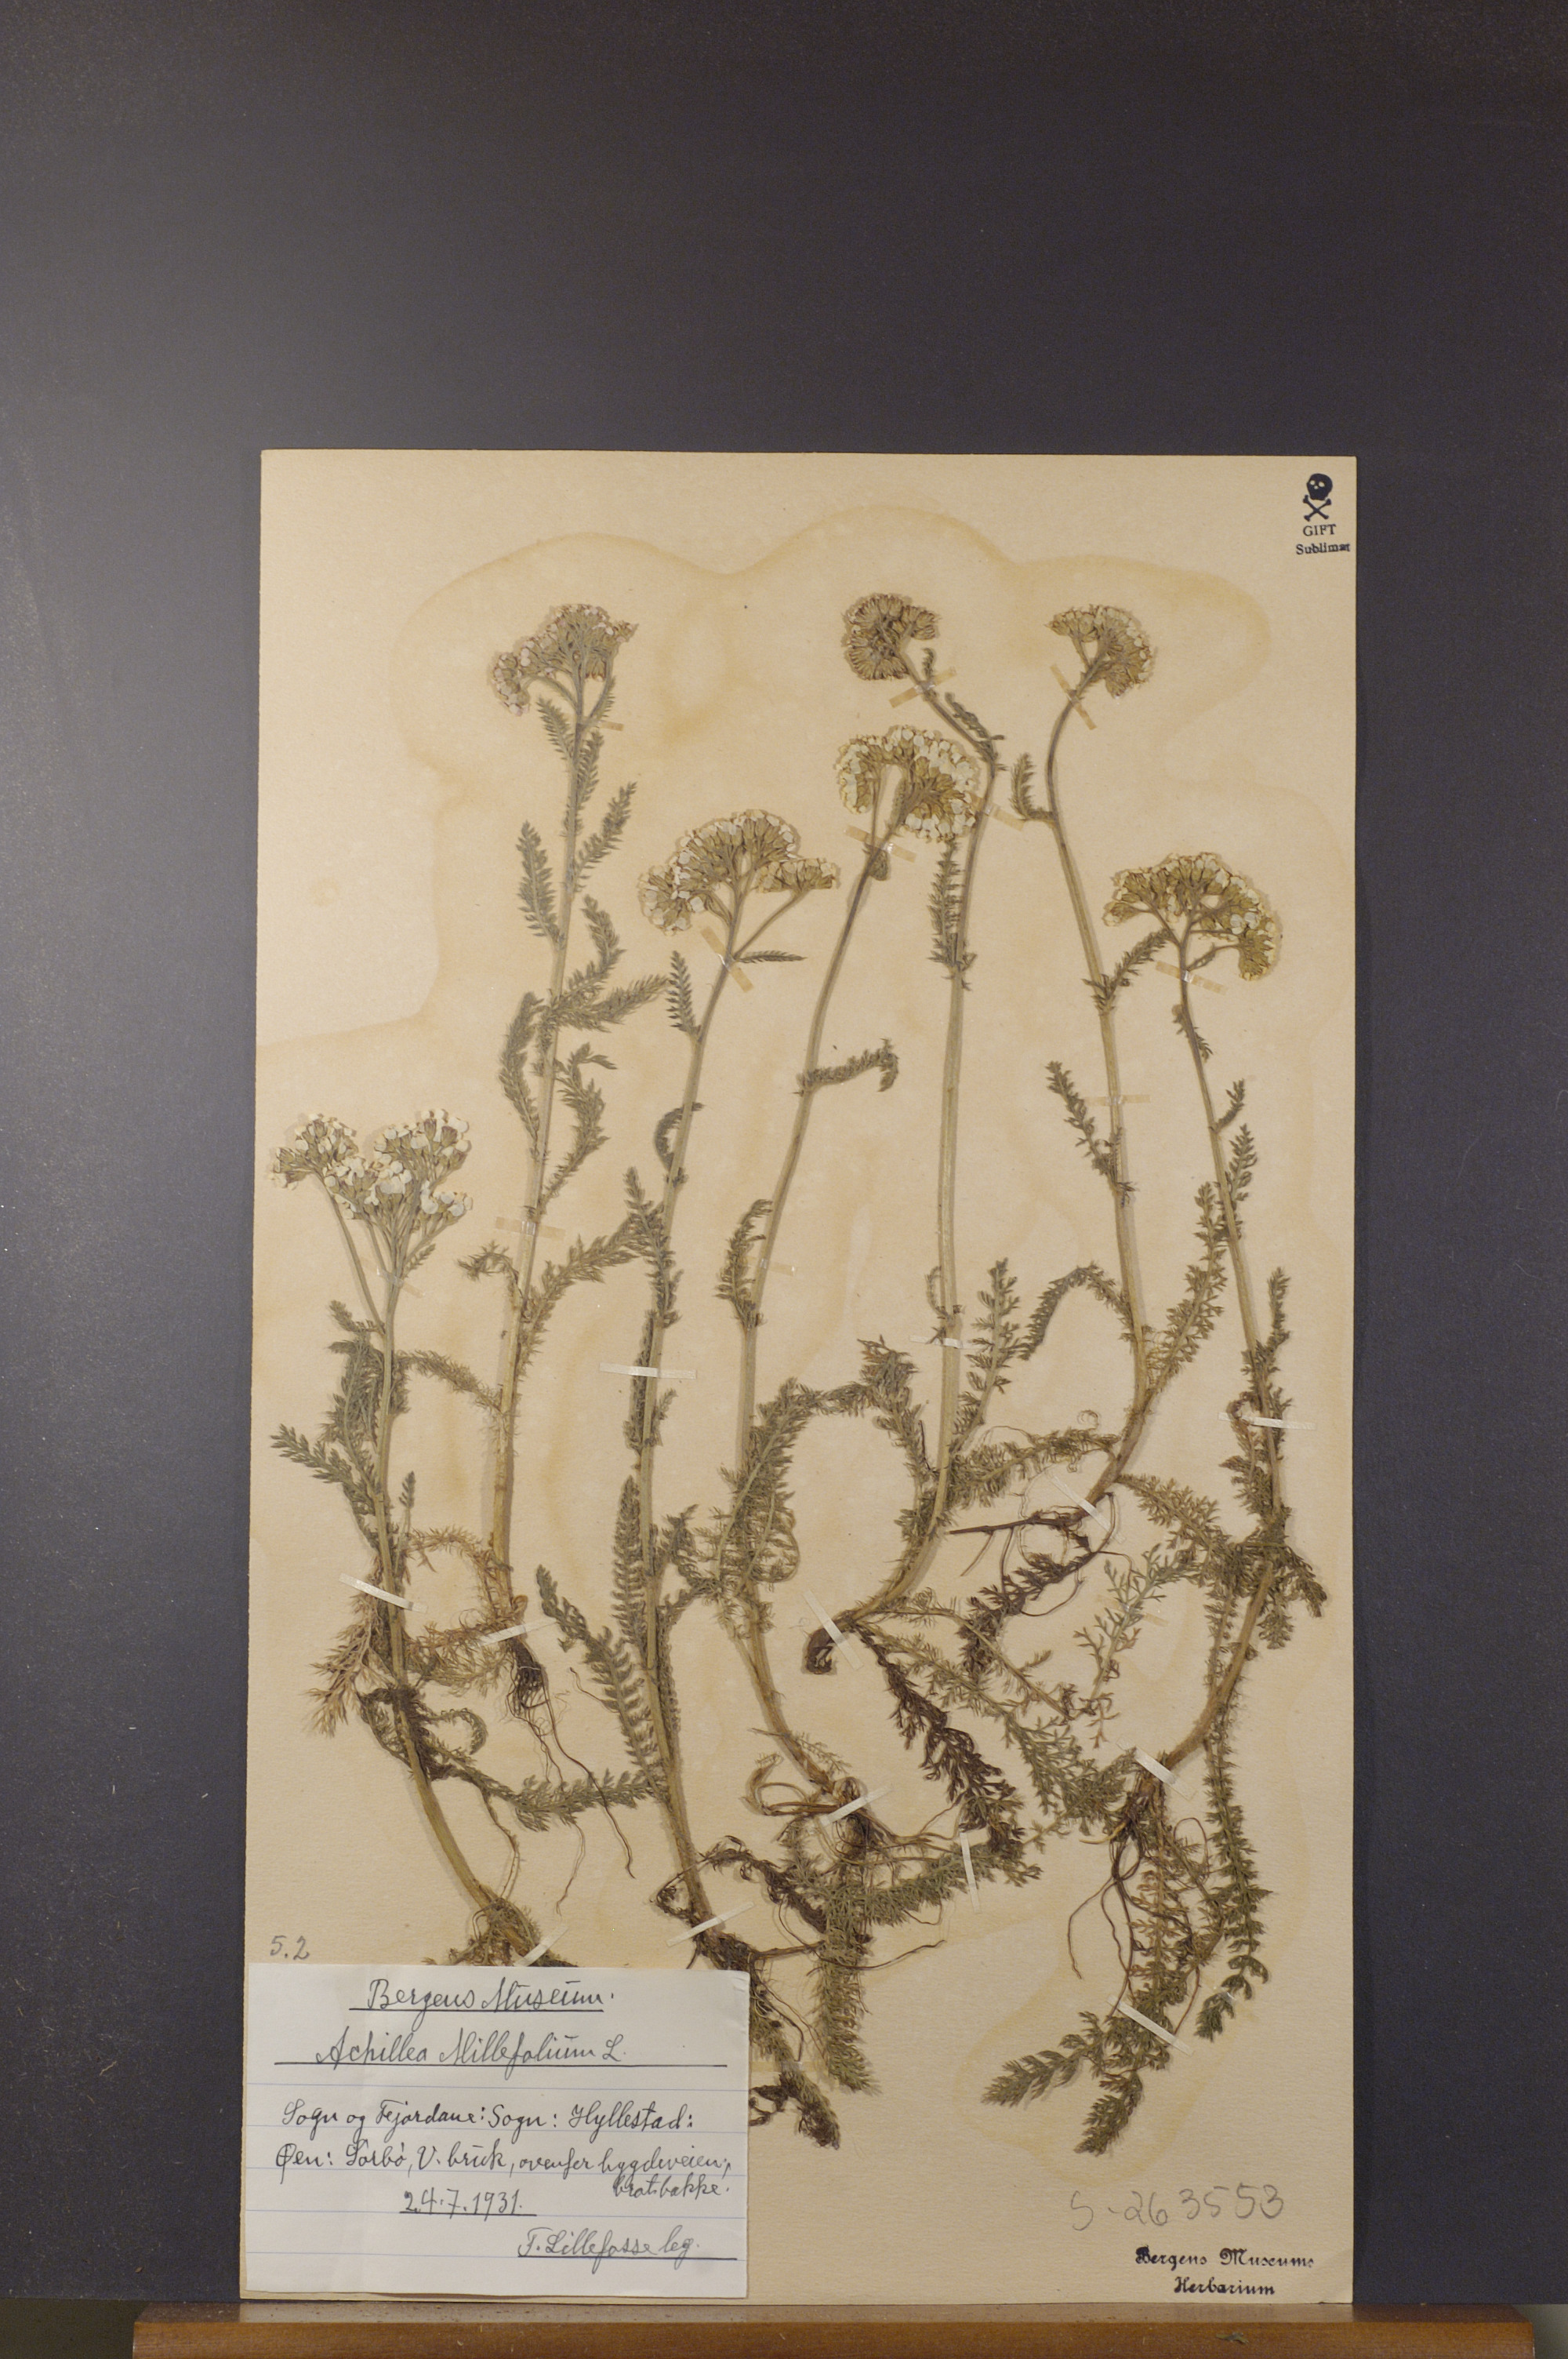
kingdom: Plantae
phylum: Tracheophyta
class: Magnoliopsida
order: Asterales
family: Asteraceae
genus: Achillea
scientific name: Achillea millefolium
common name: Yarrow
